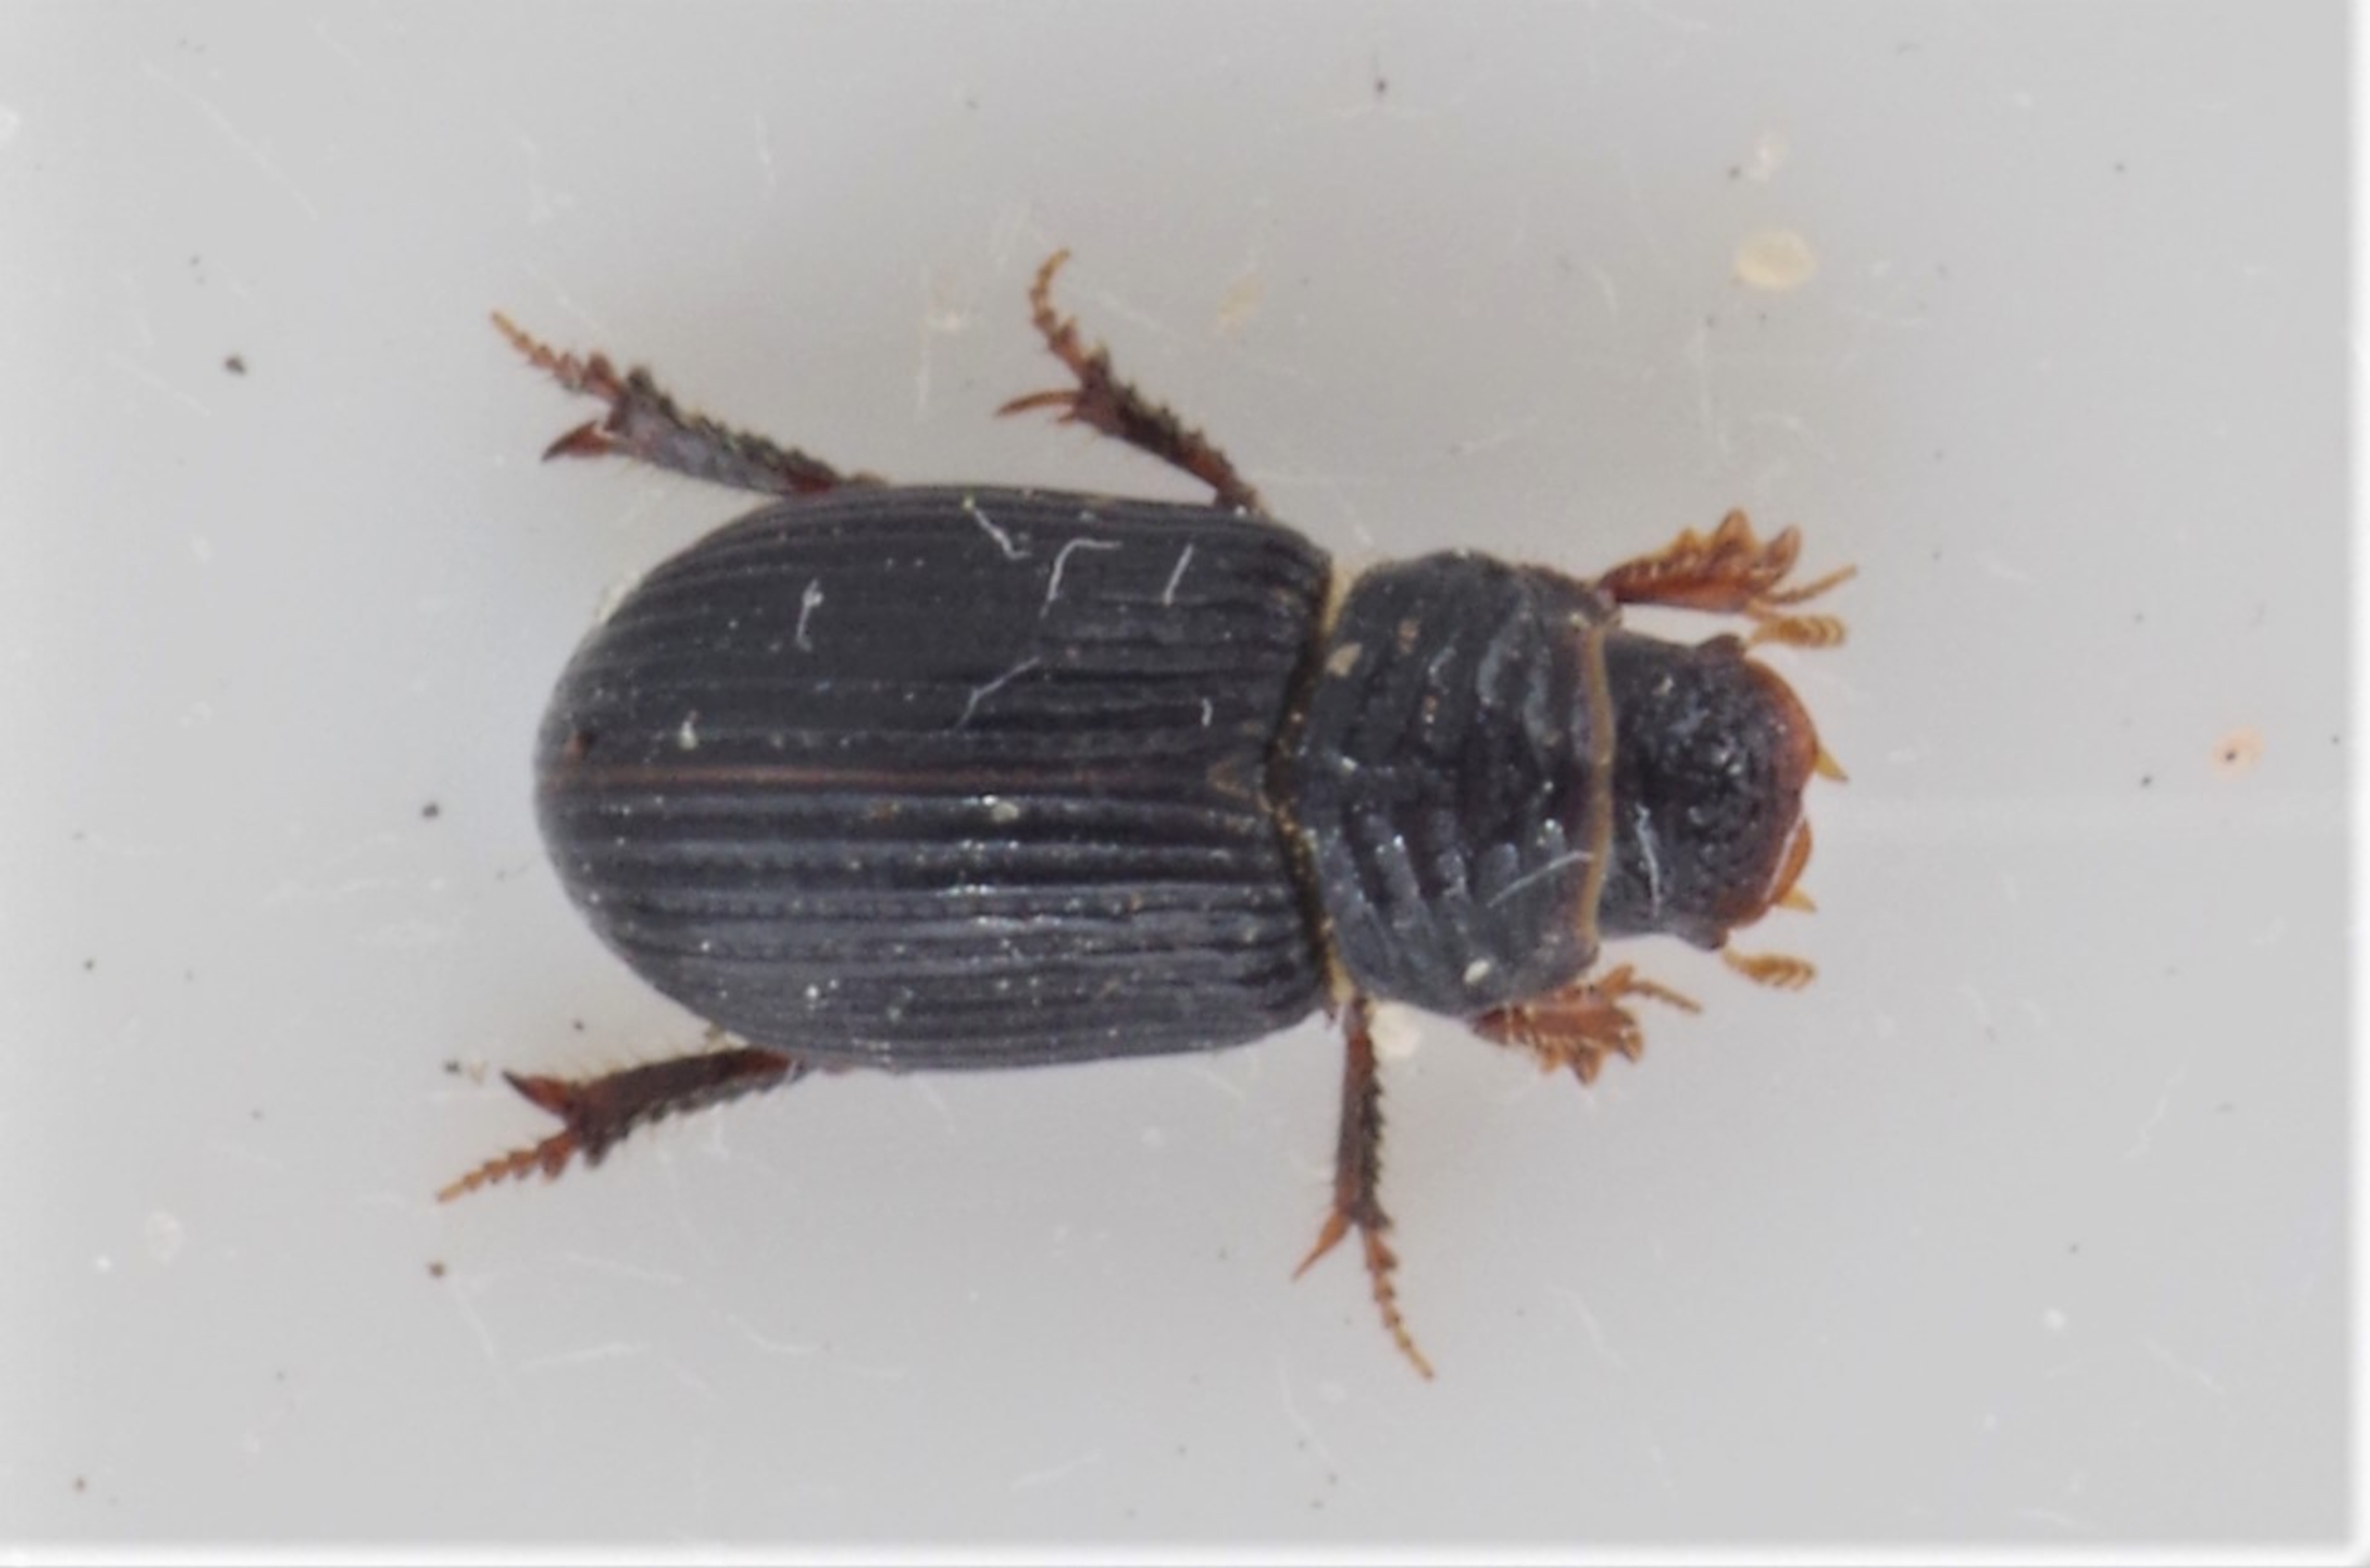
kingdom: Animalia
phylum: Arthropoda
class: Insecta
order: Coleoptera
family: Scarabaeidae
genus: Psammodius
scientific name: Psammodius asper
